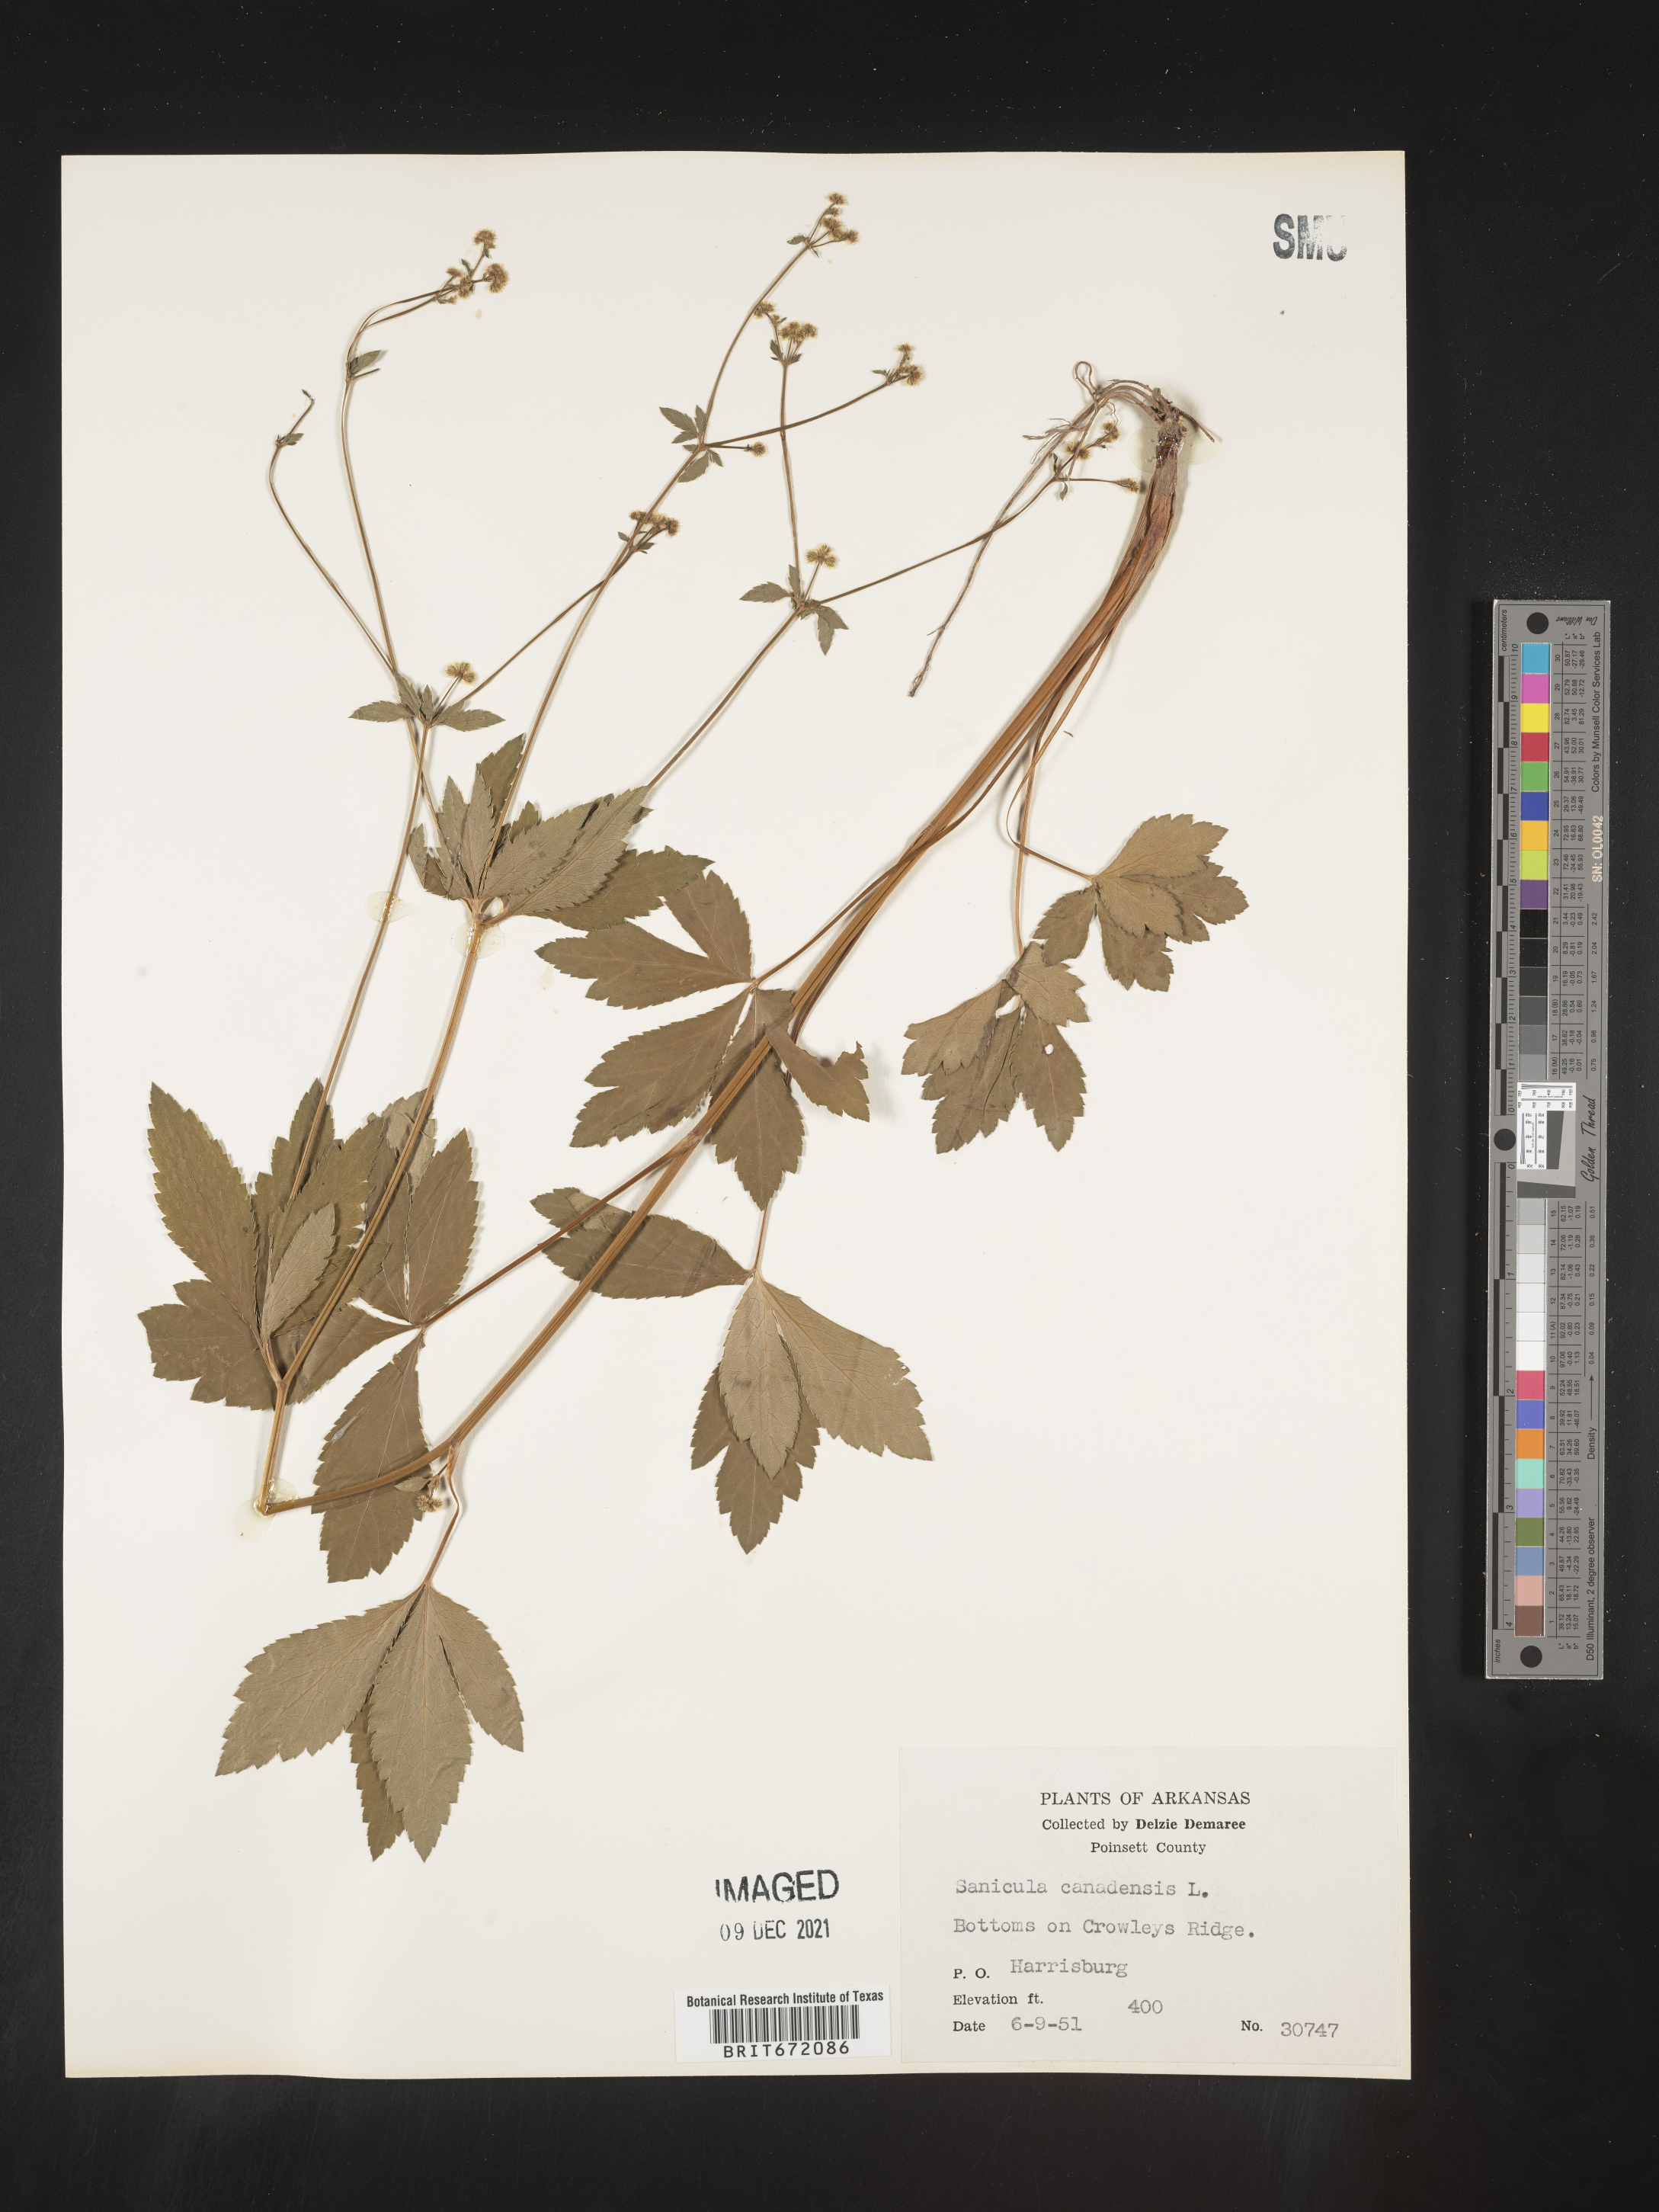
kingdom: Plantae
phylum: Tracheophyta
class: Magnoliopsida
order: Apiales
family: Apiaceae
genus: Sanicula
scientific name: Sanicula canadensis
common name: Canada sanicle
